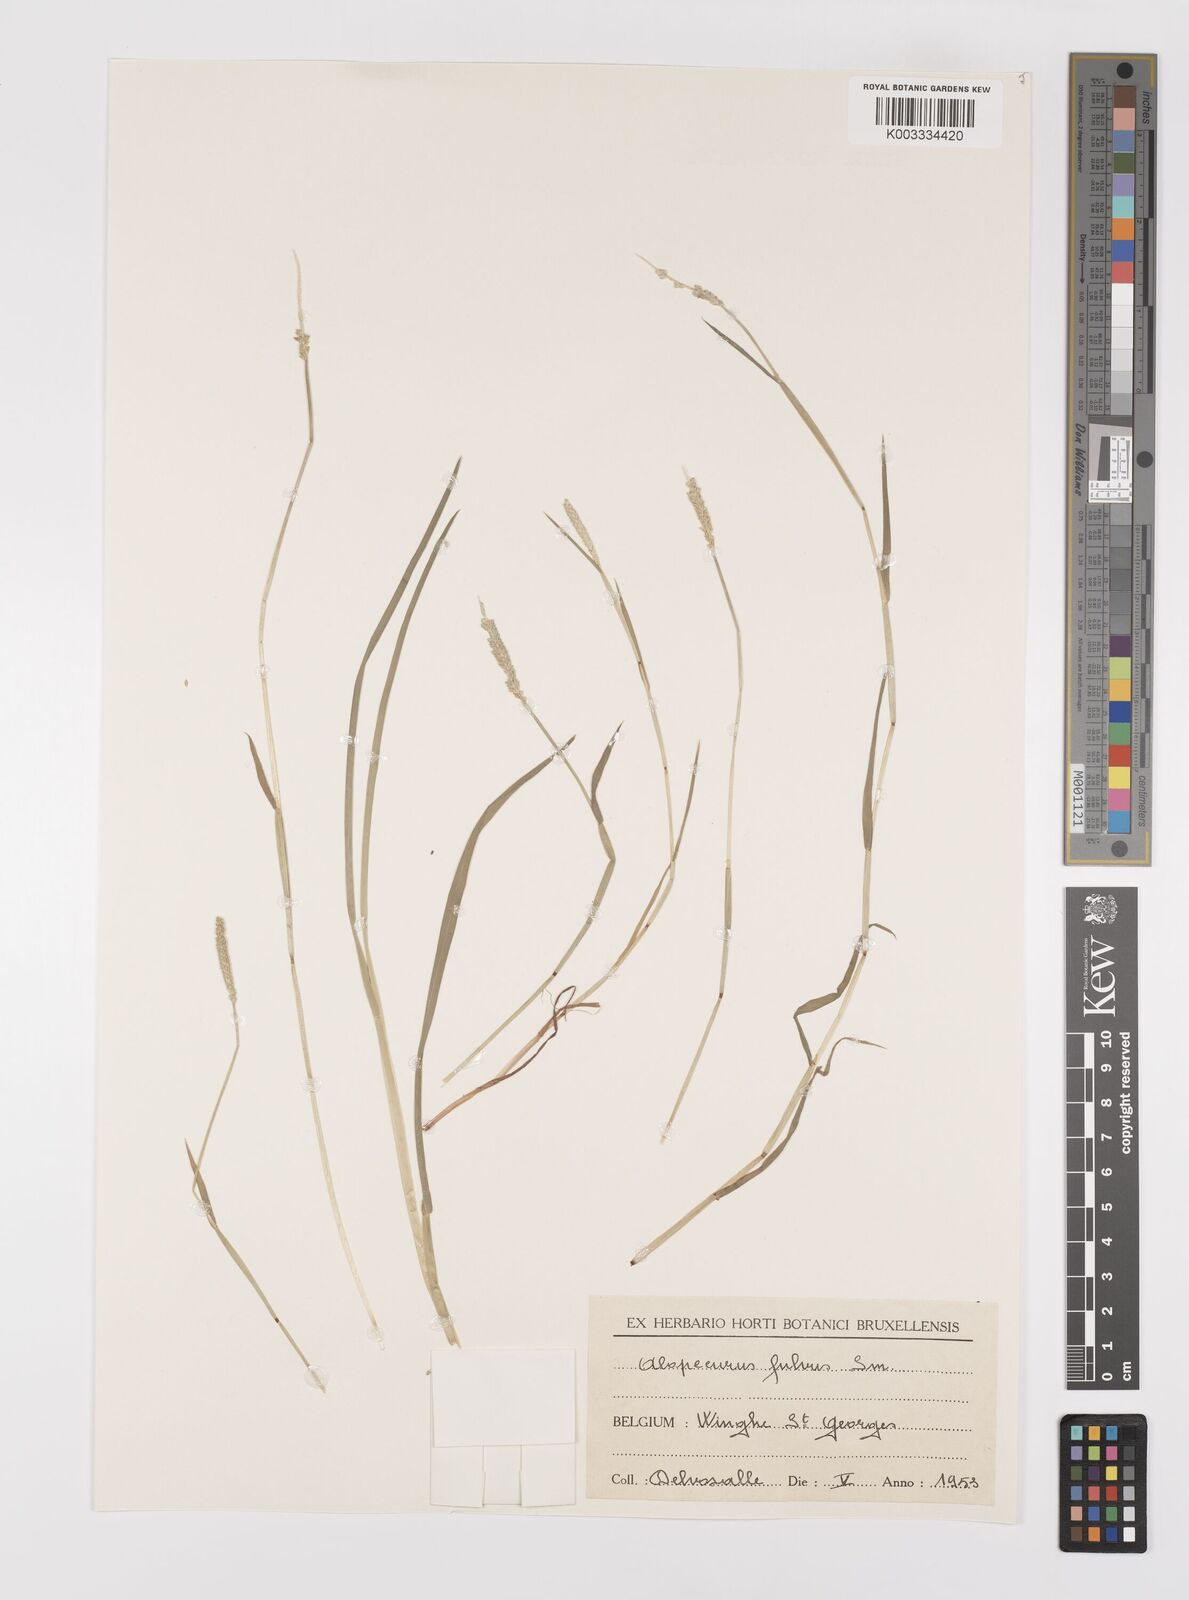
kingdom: Plantae
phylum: Tracheophyta
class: Liliopsida
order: Poales
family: Poaceae
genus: Alopecurus
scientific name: Alopecurus aequalis
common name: Orange foxtail
